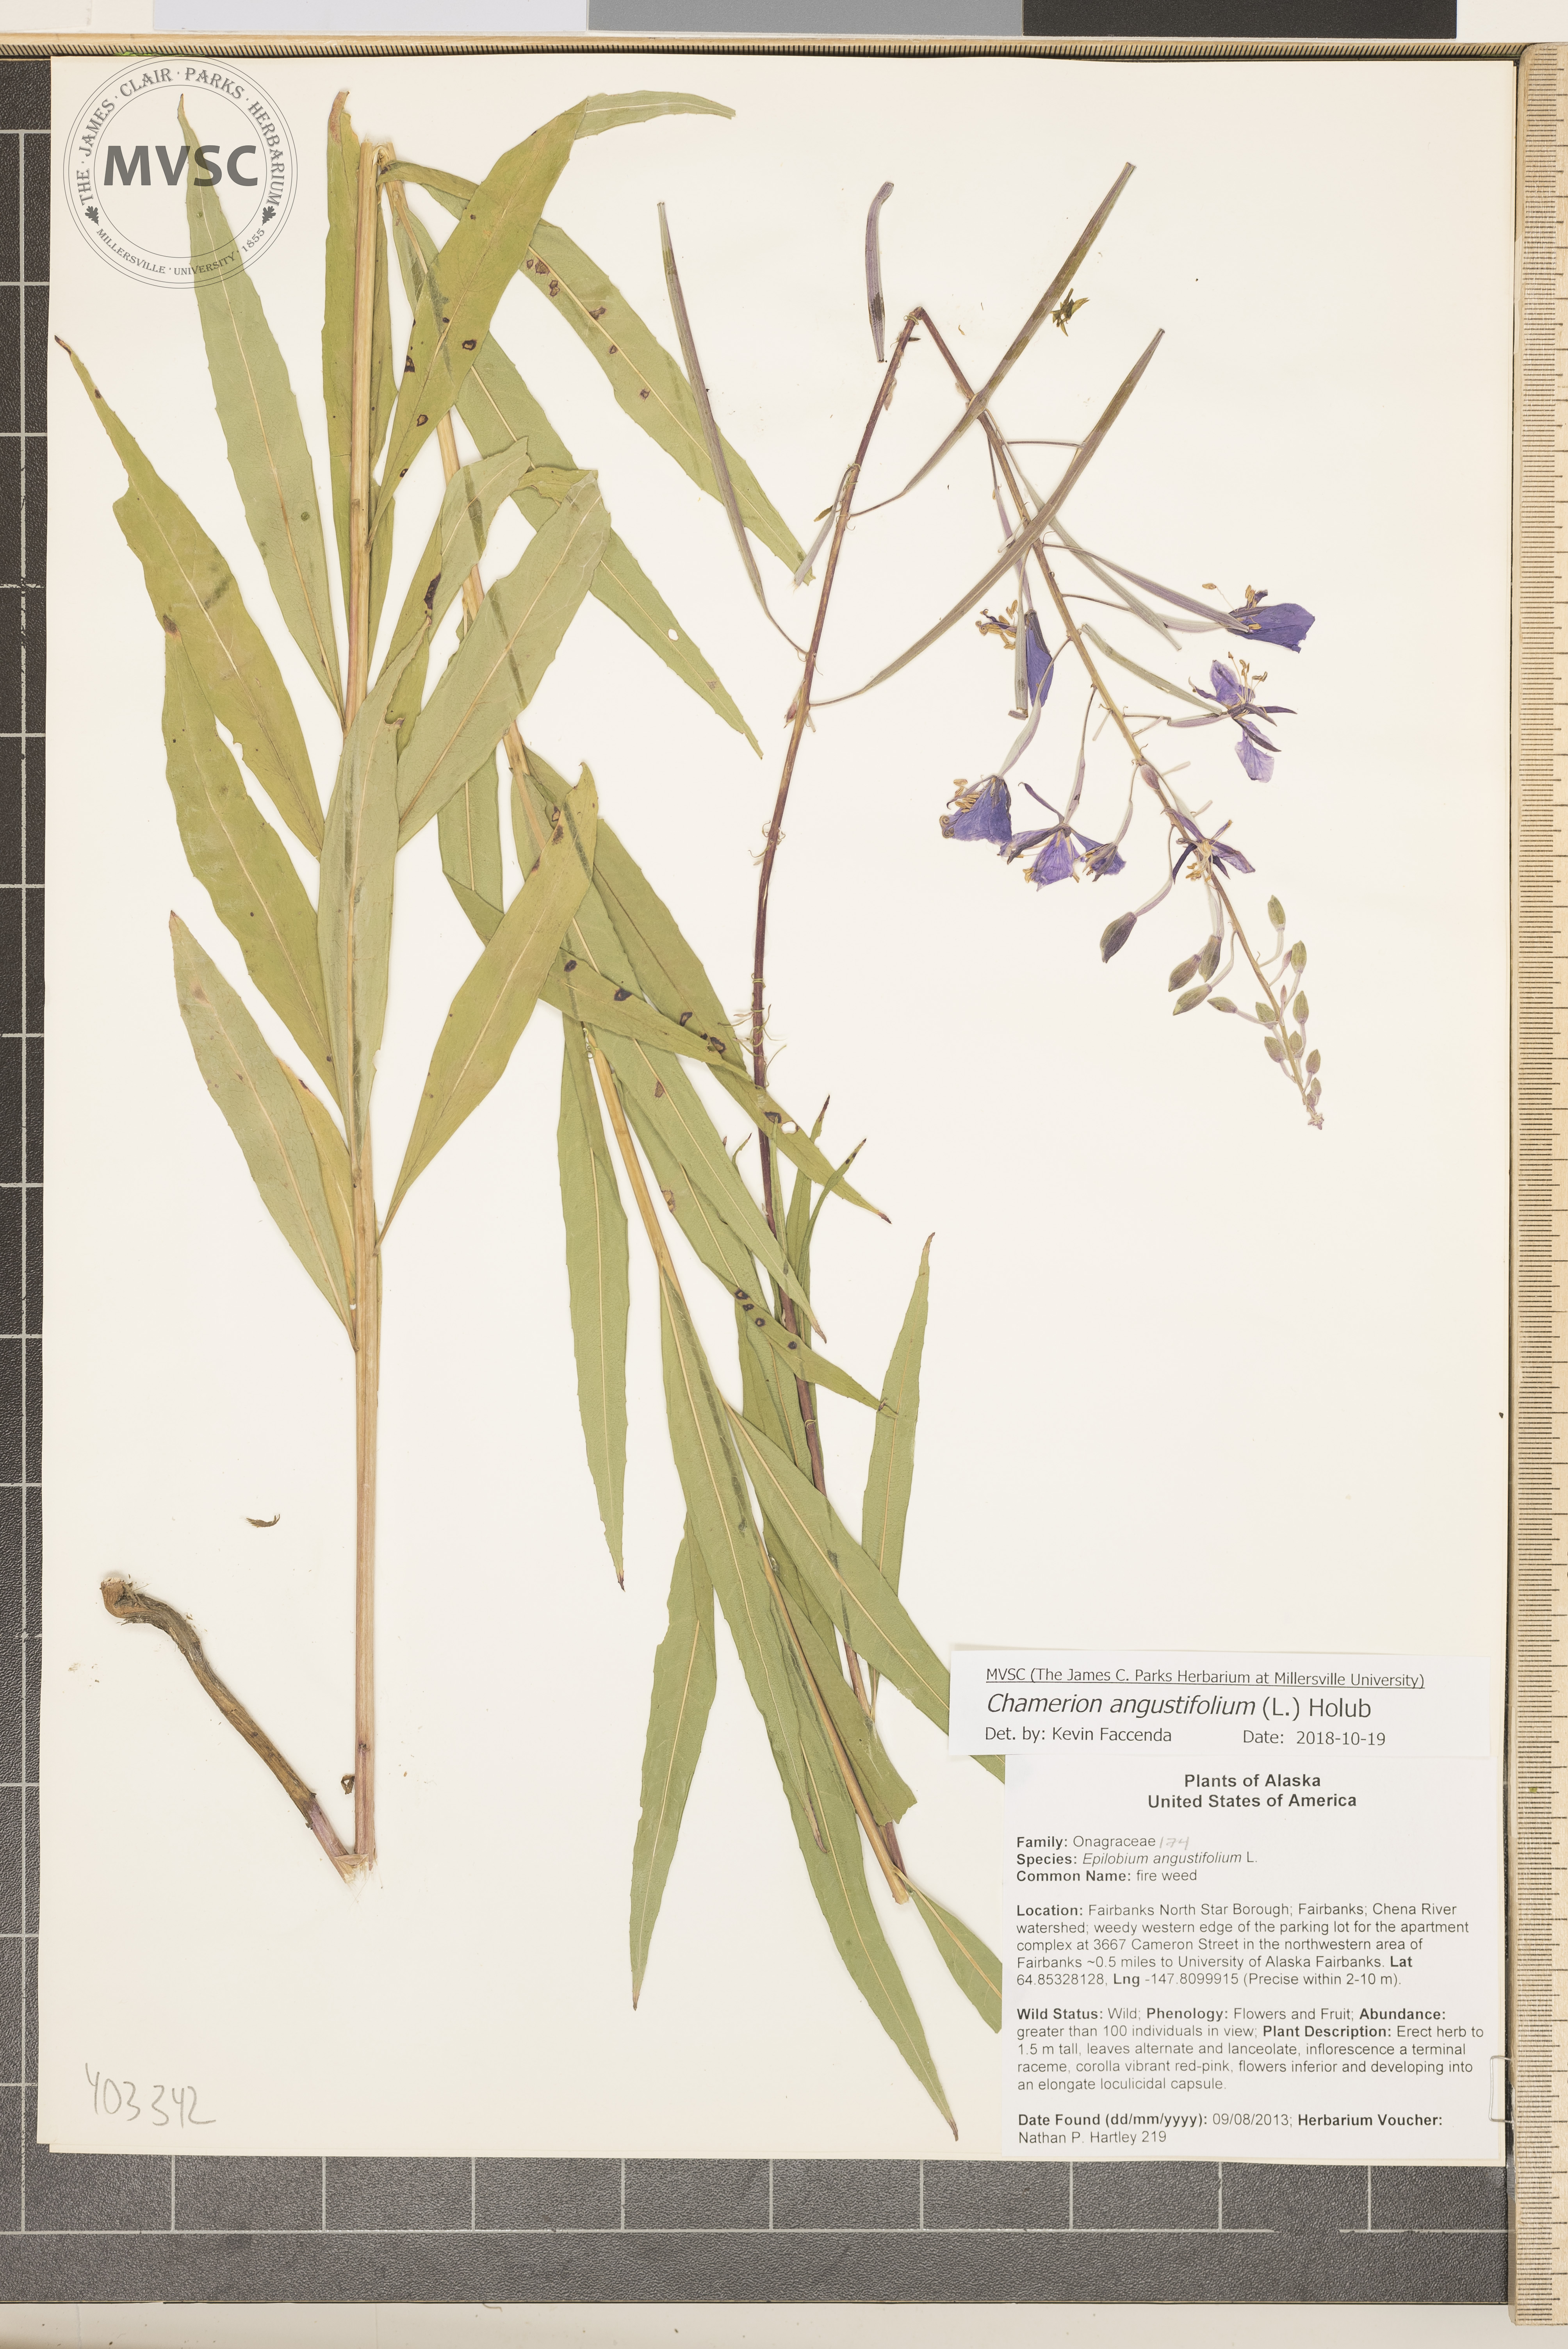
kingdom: Plantae
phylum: Tracheophyta
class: Magnoliopsida
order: Myrtales
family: Onagraceae
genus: Chamaenerion
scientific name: Chamaenerion angustifolium
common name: Fireweed
